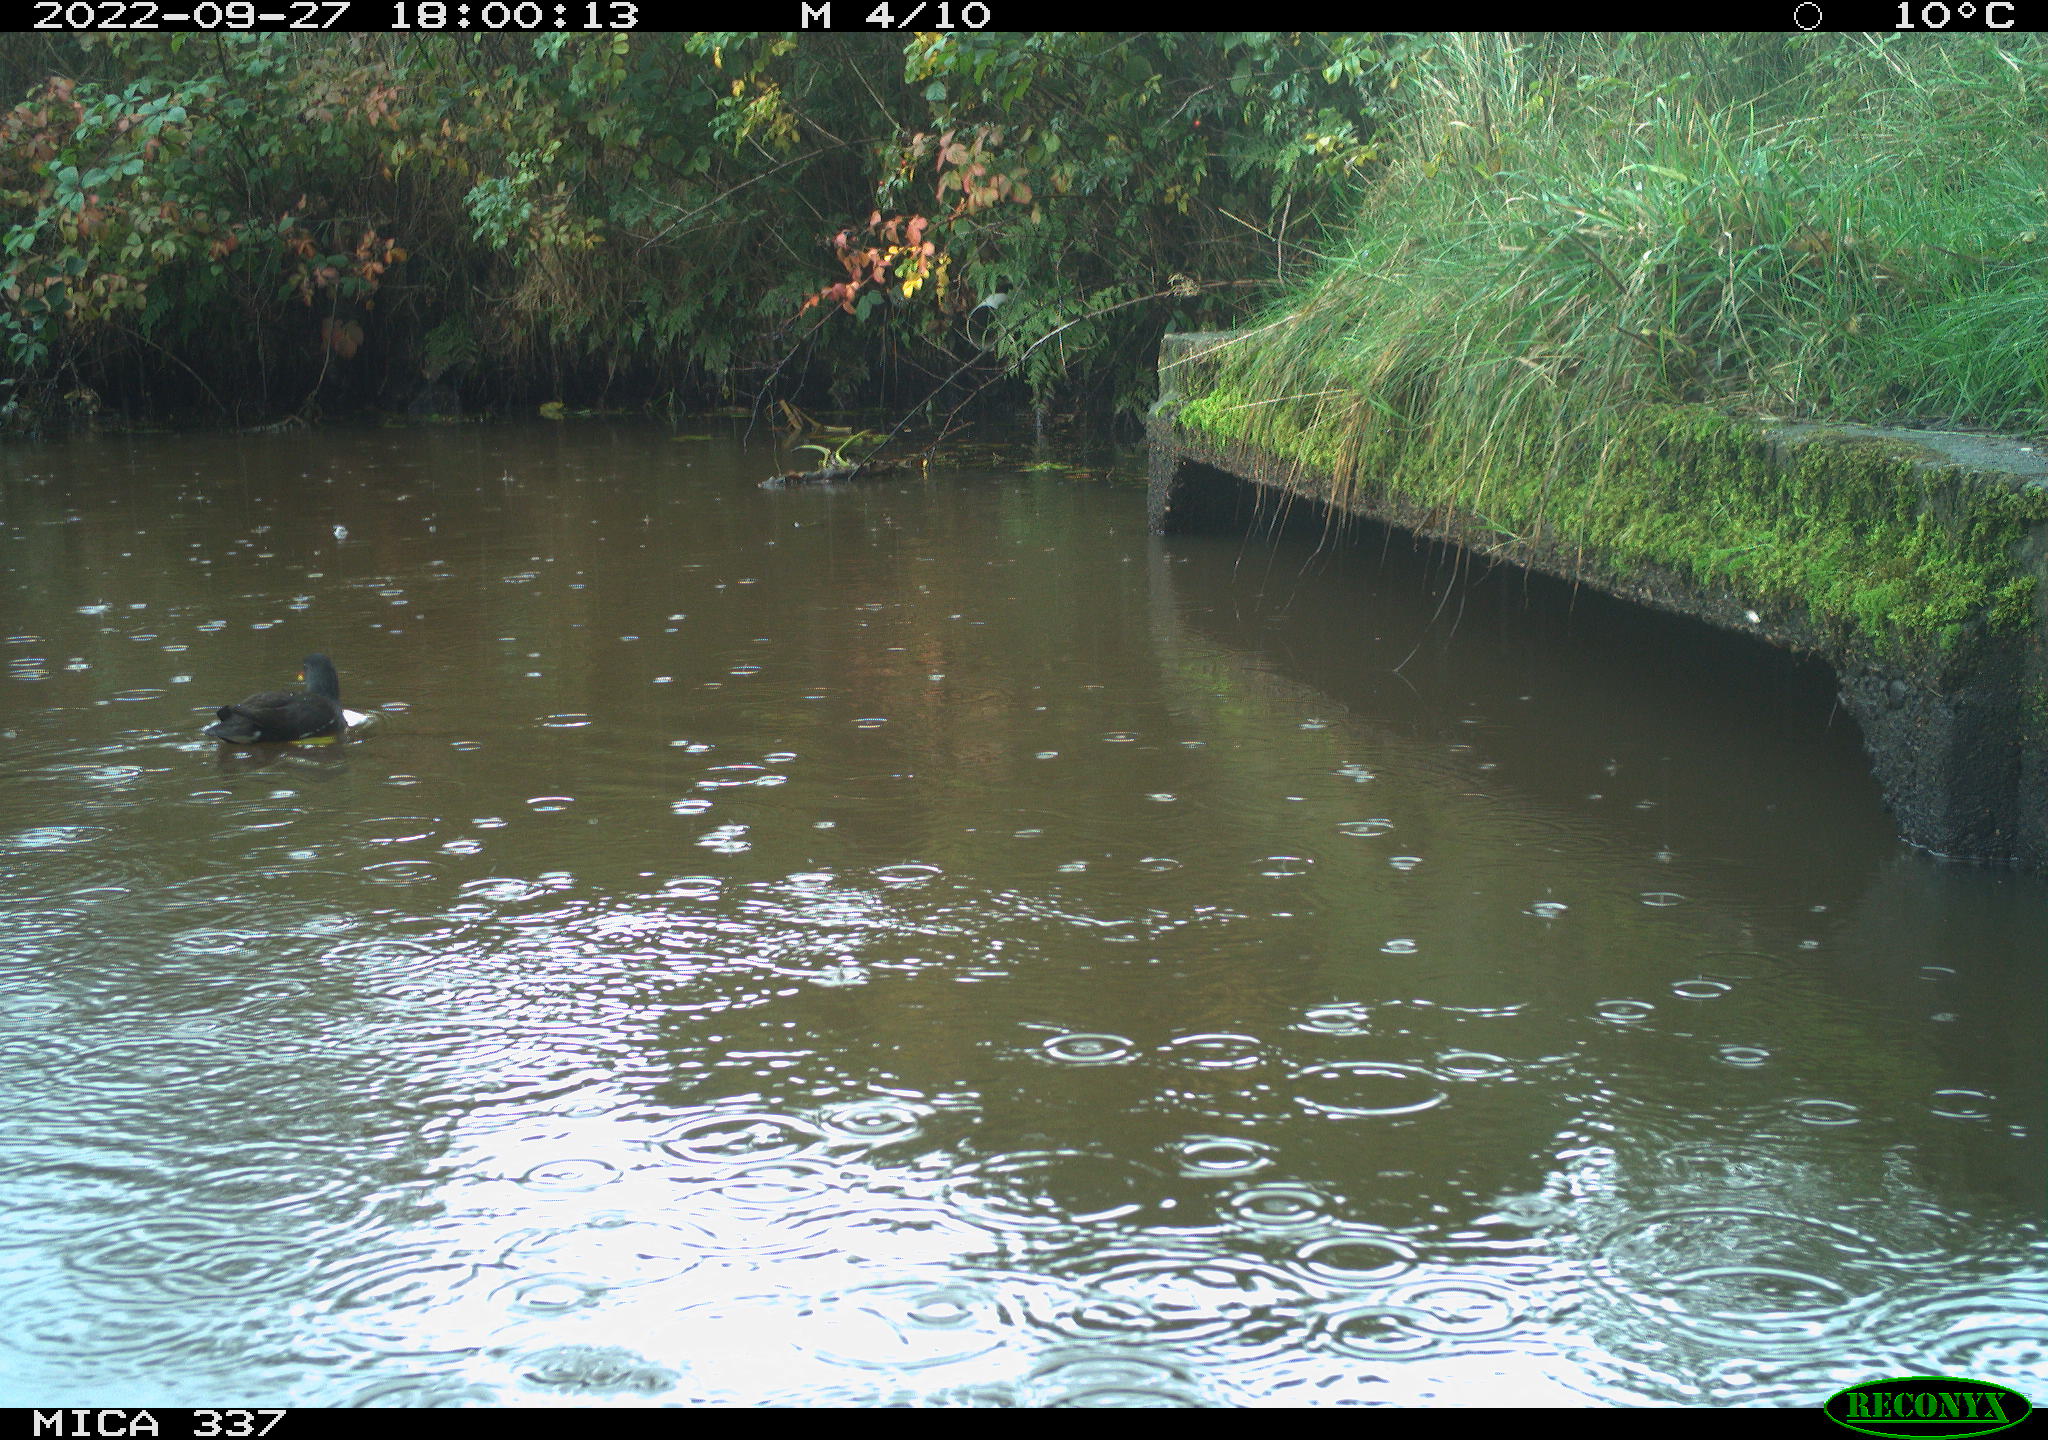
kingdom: Animalia
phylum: Chordata
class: Aves
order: Gruiformes
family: Rallidae
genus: Gallinula
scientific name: Gallinula chloropus
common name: Common moorhen
